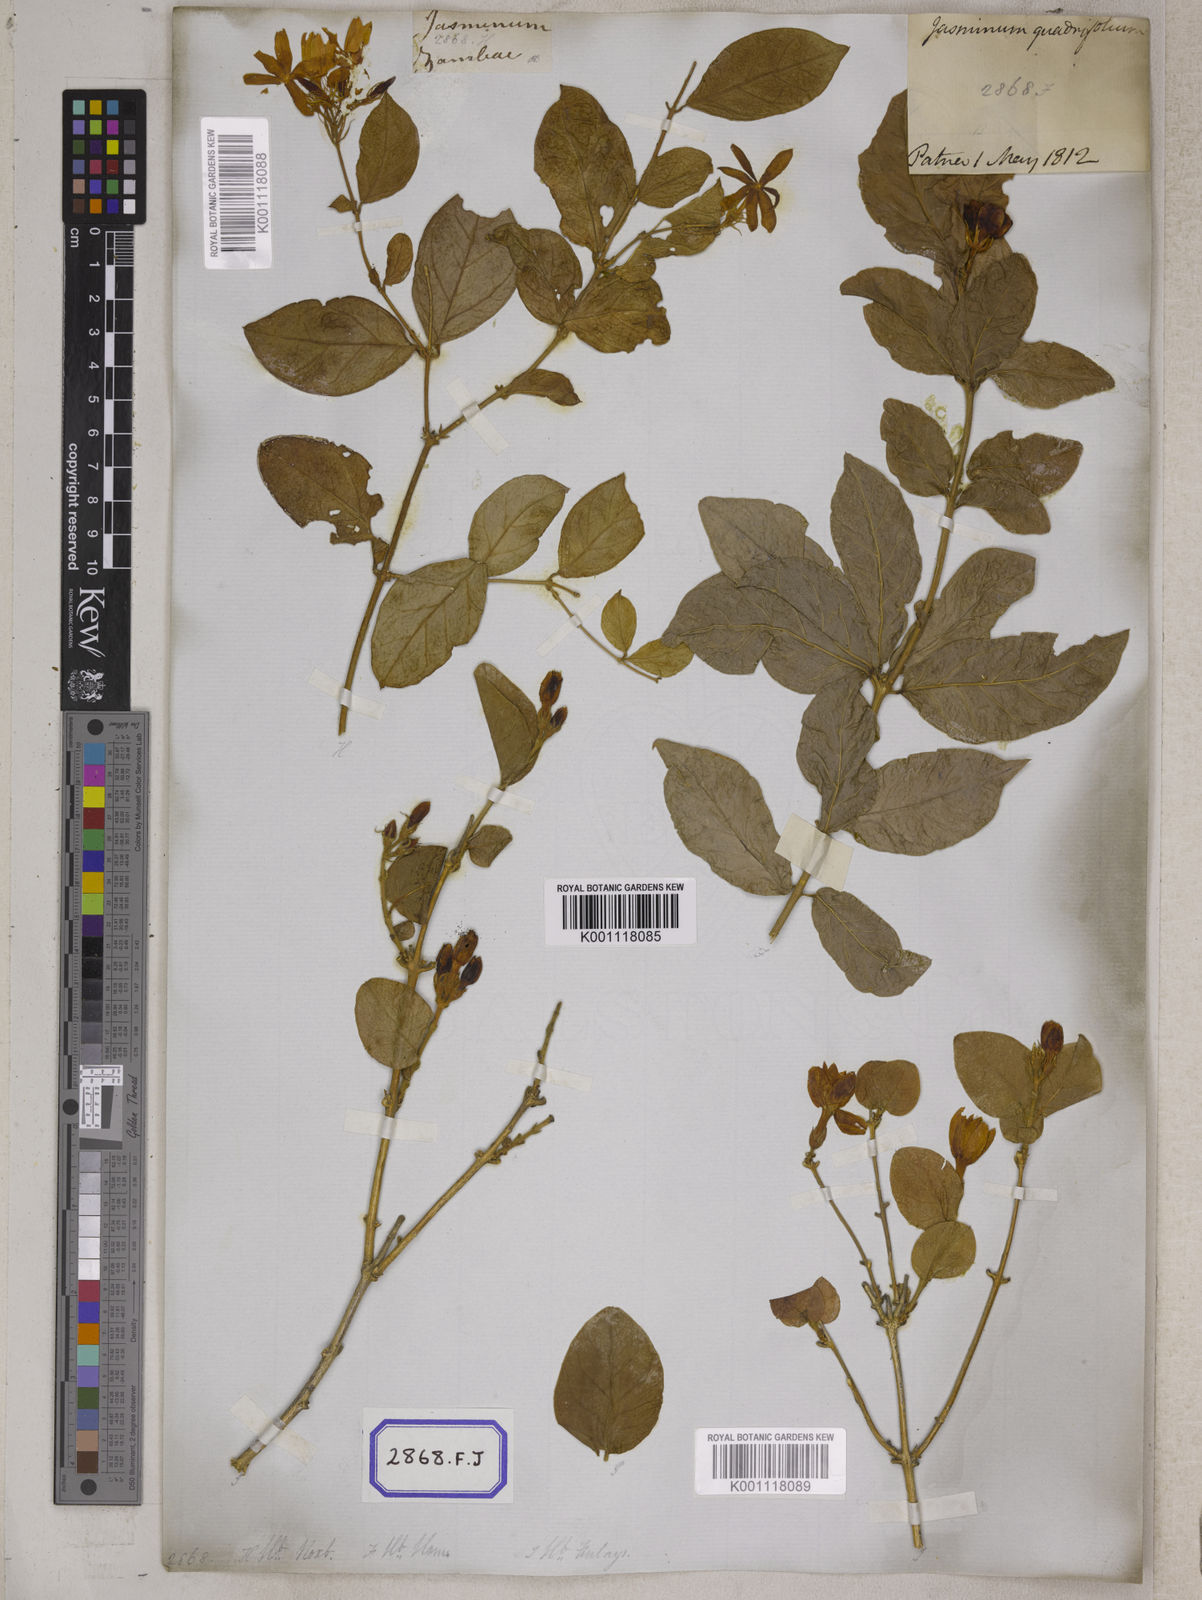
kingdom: Plantae
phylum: Tracheophyta
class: Magnoliopsida
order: Lamiales
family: Oleaceae
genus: Jasminum
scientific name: Jasminum sambac
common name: Arabian jasmine
